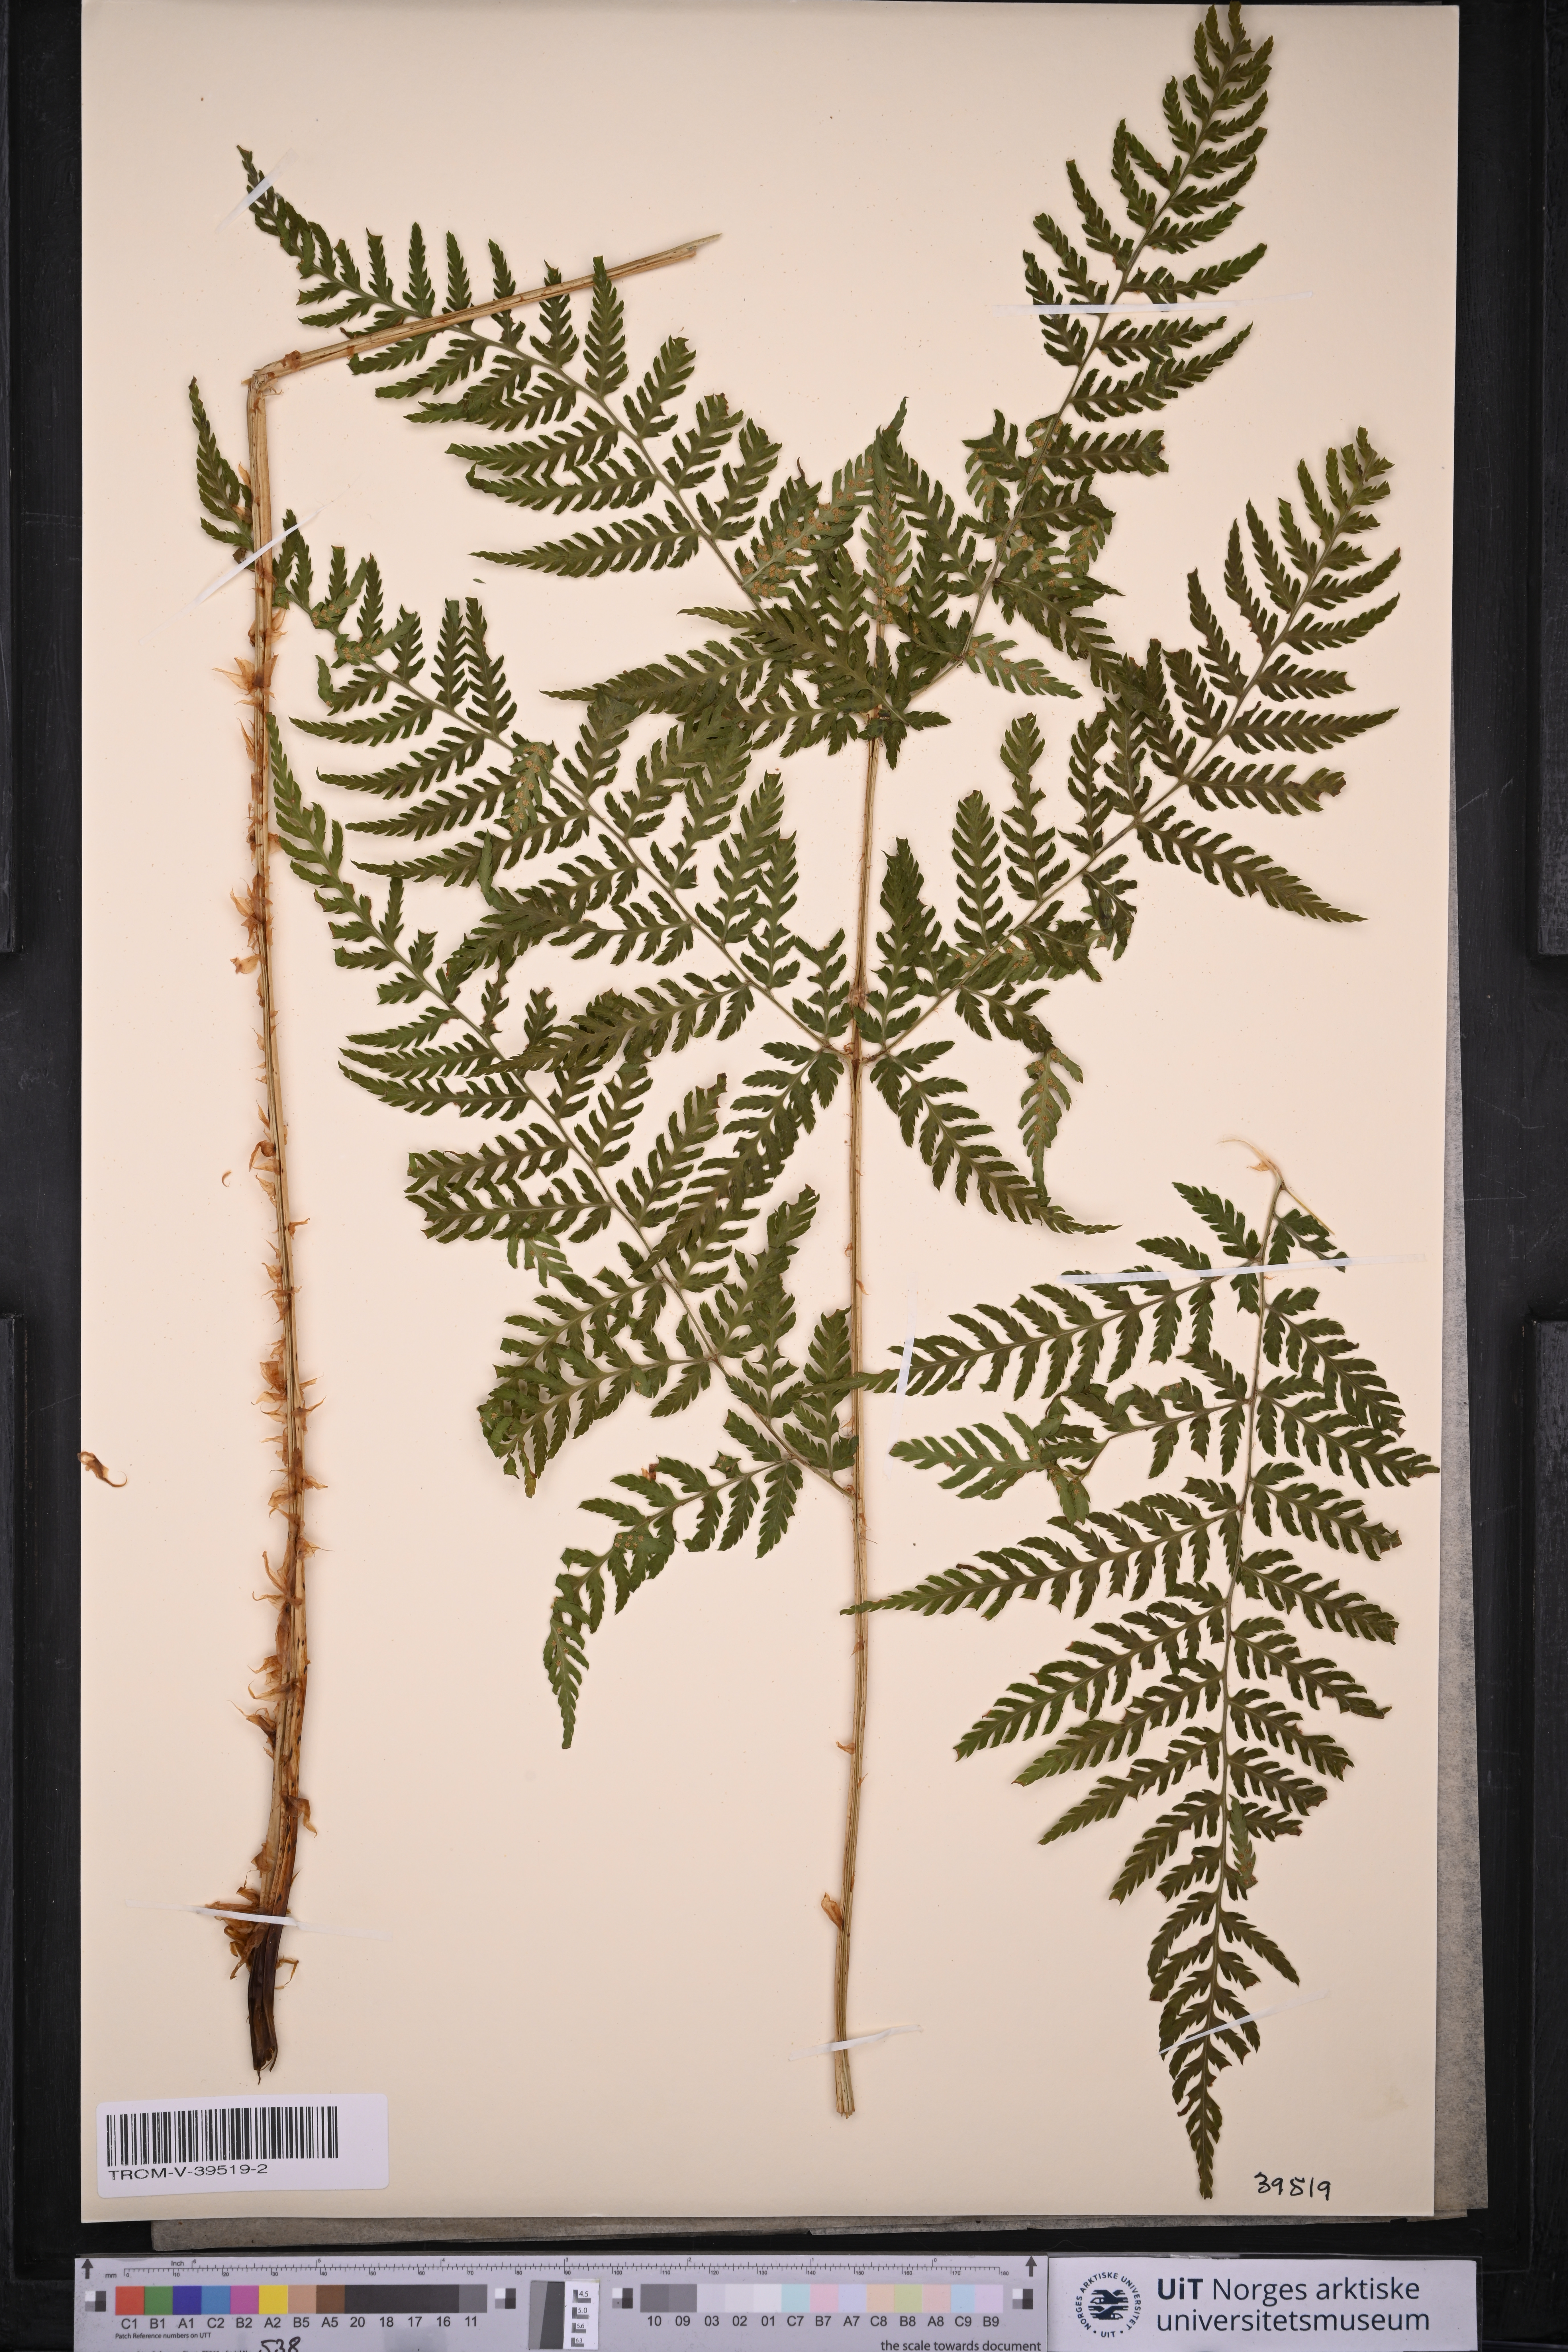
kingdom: Plantae
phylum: Tracheophyta
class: Polypodiopsida
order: Polypodiales
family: Dryopteridaceae
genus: Dryopteris
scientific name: Dryopteris expansa
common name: Northern buckler fern
